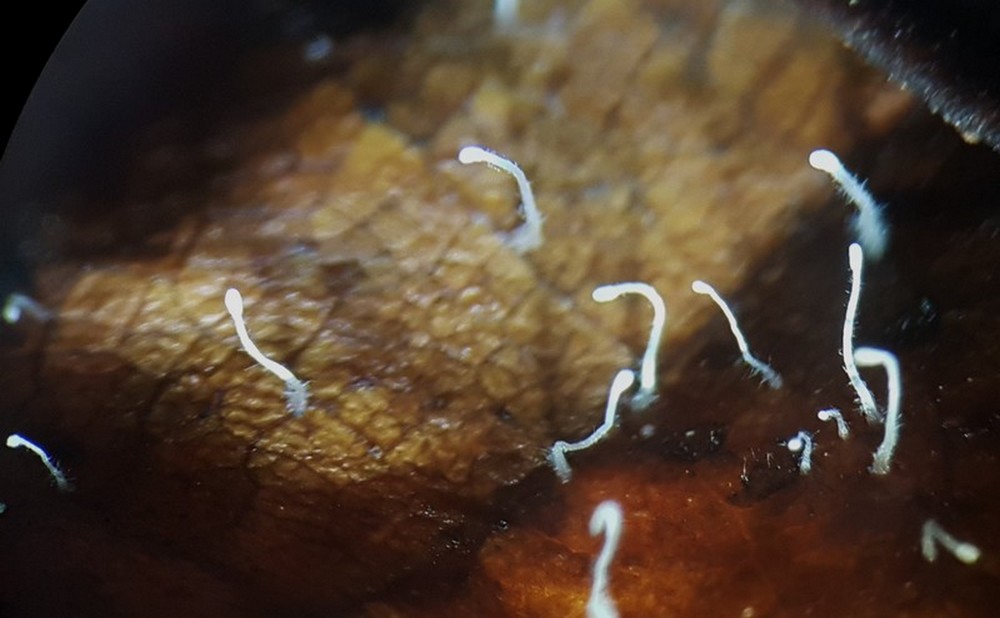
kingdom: Fungi
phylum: Basidiomycota
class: Agaricomycetes
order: Agaricales
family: Typhulaceae
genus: Typhula
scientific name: Typhula setipes
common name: liden trådkølle
